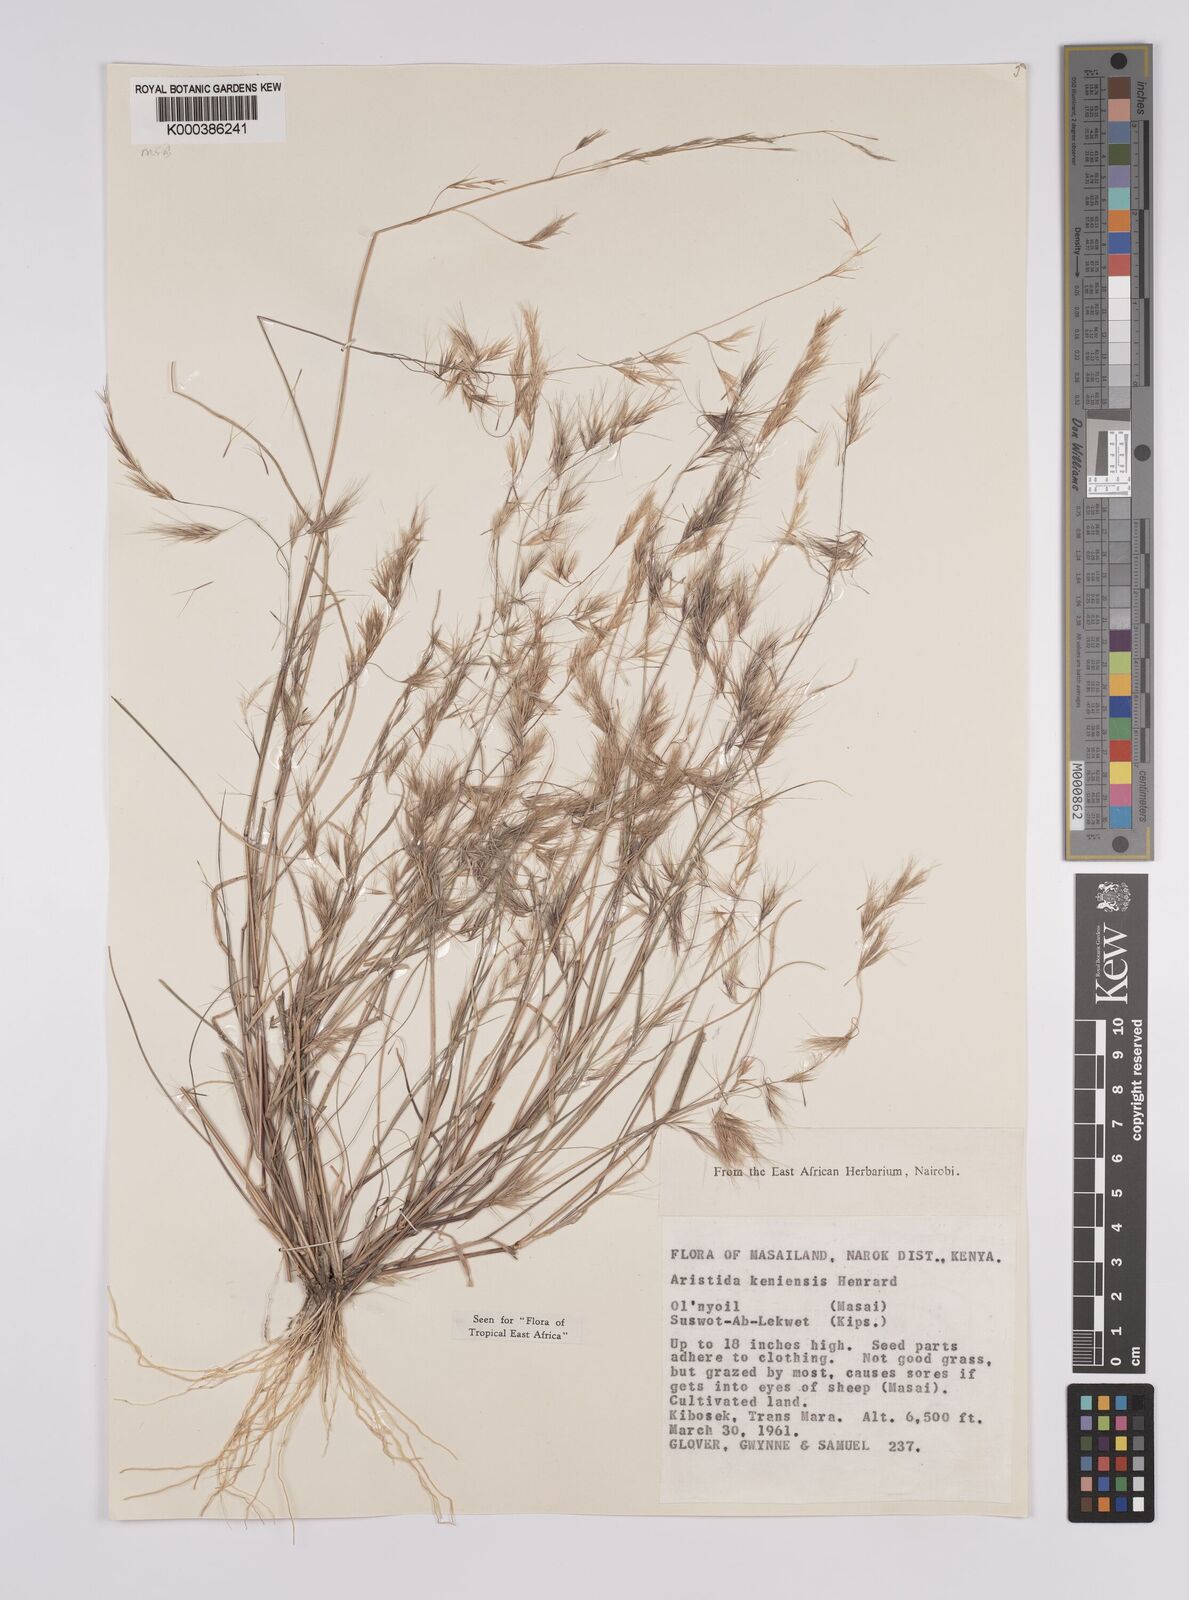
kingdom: Plantae
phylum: Tracheophyta
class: Liliopsida
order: Poales
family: Poaceae
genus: Aristida
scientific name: Aristida kenyensis
